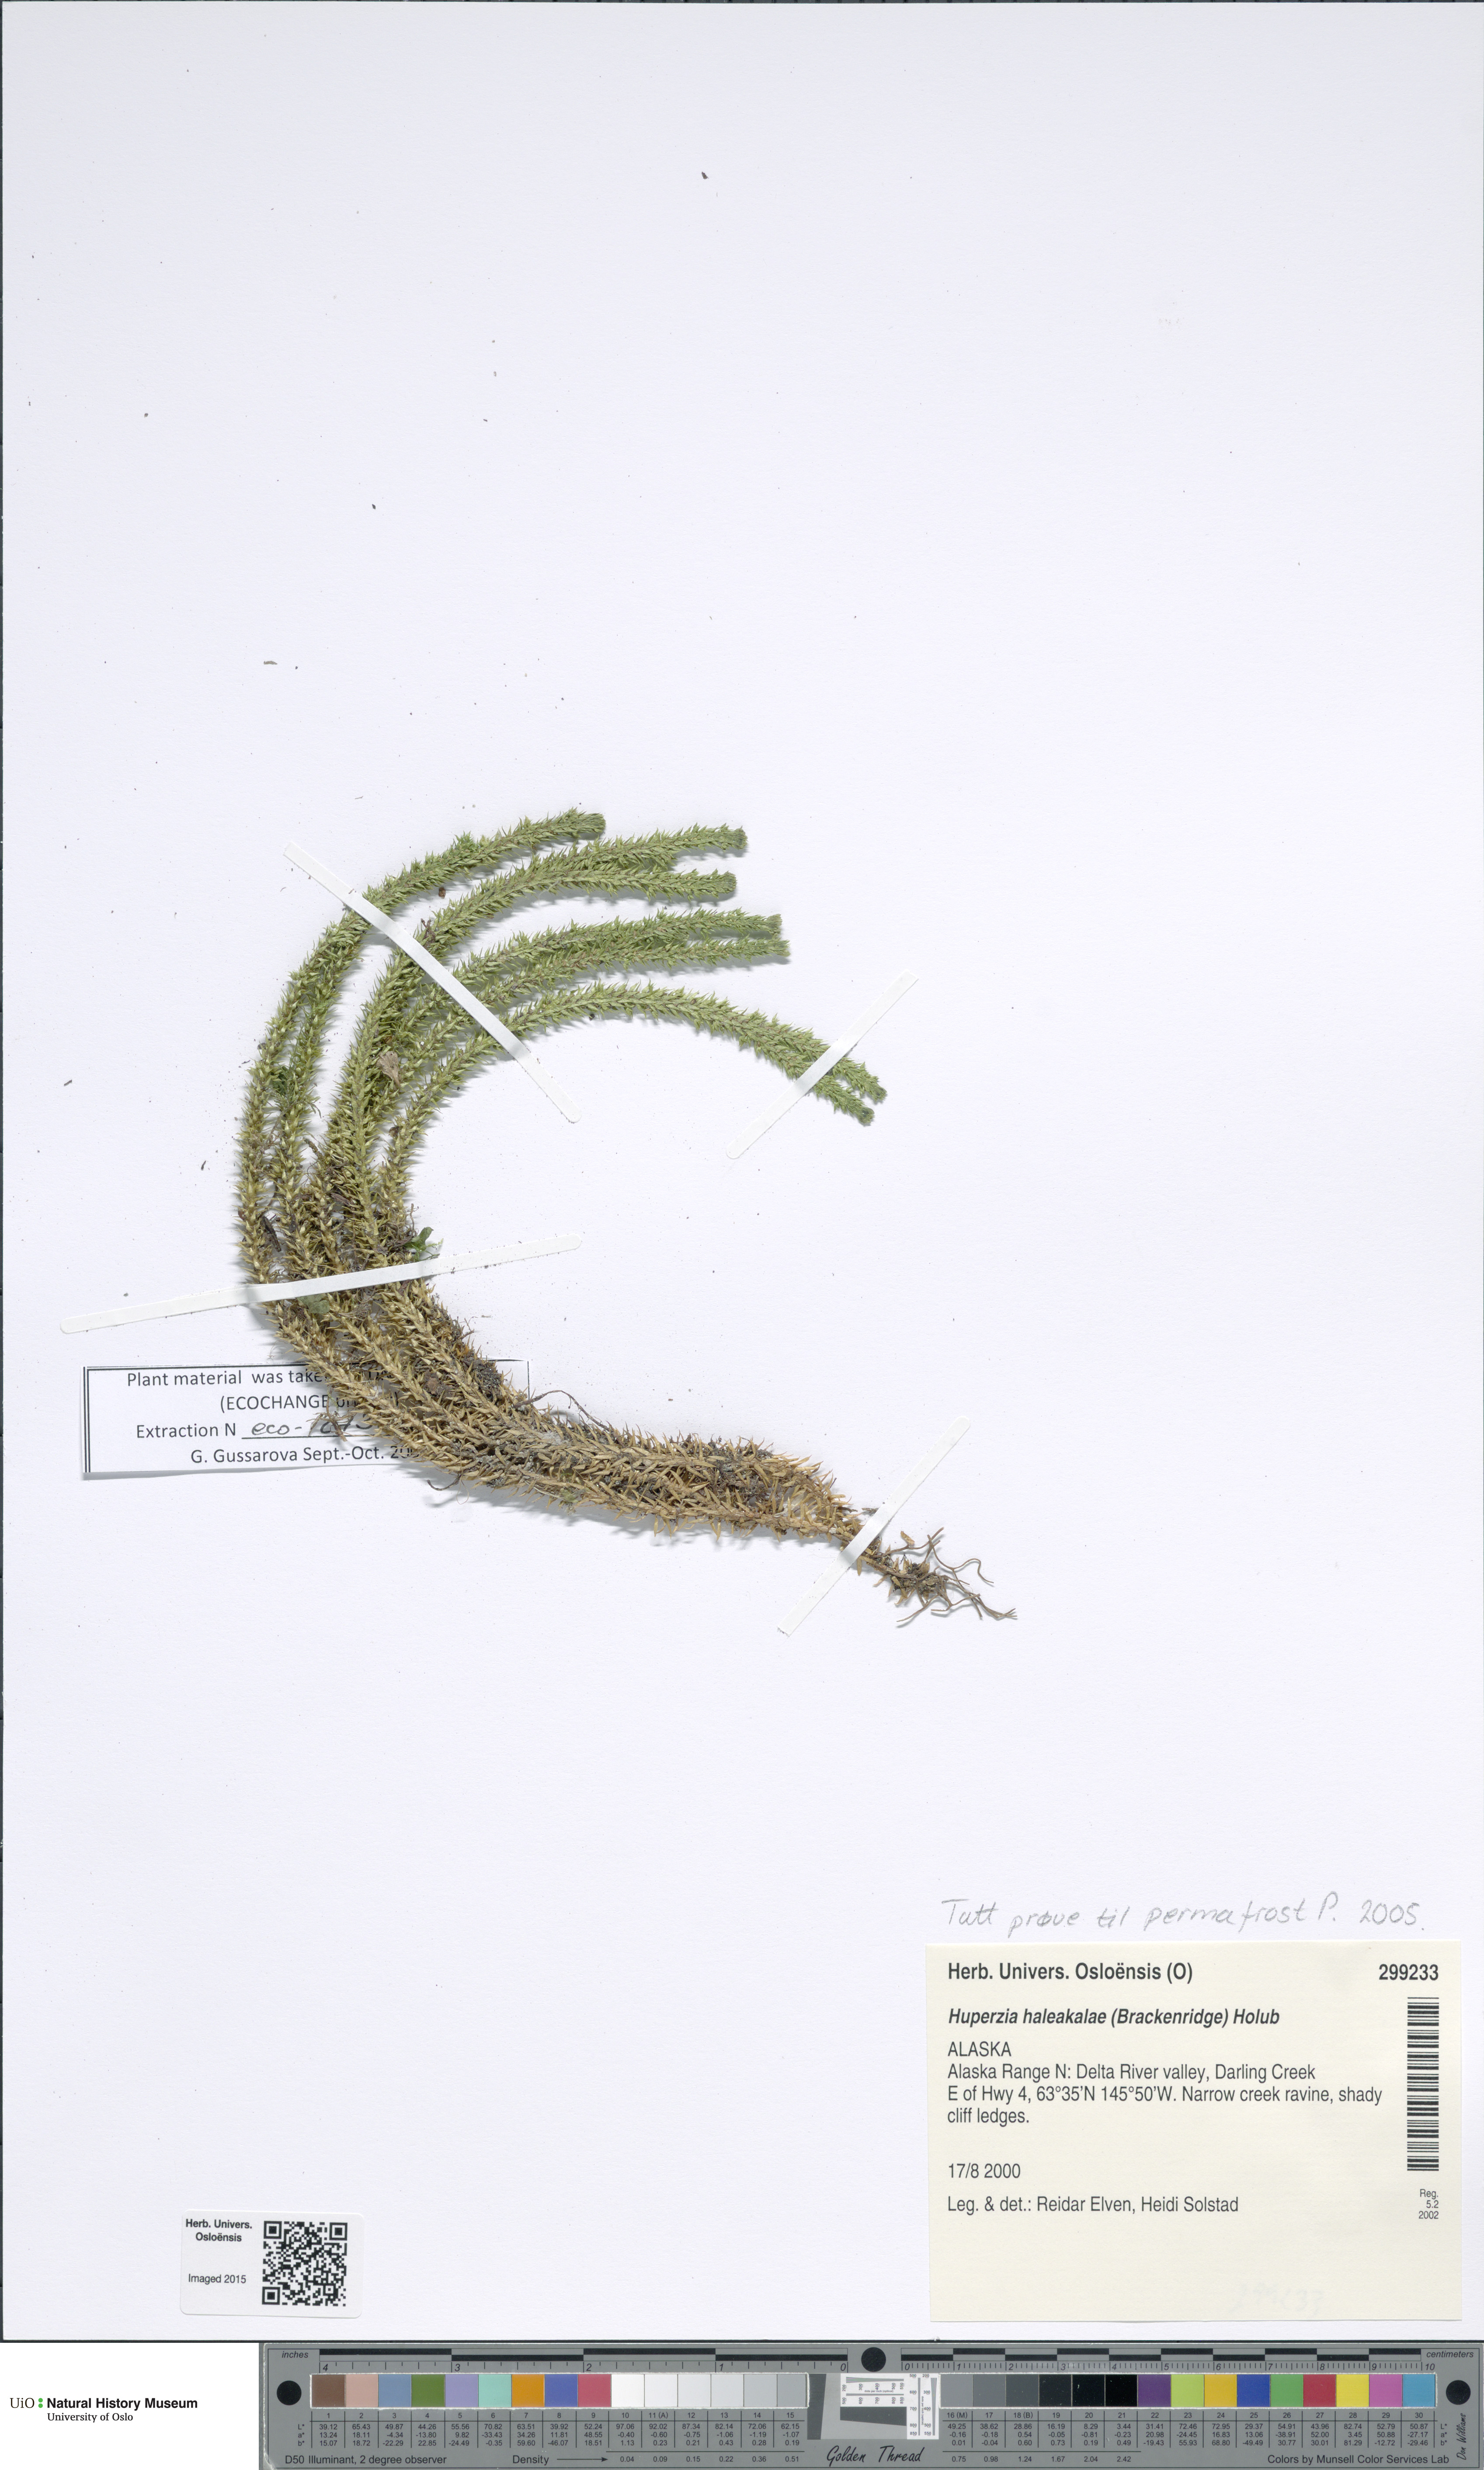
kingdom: Plantae
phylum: Tracheophyta
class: Lycopodiopsida
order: Lycopodiales
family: Lycopodiaceae
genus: Huperzia
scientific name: Huperzia haleakalae
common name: Haleakala firmoss
